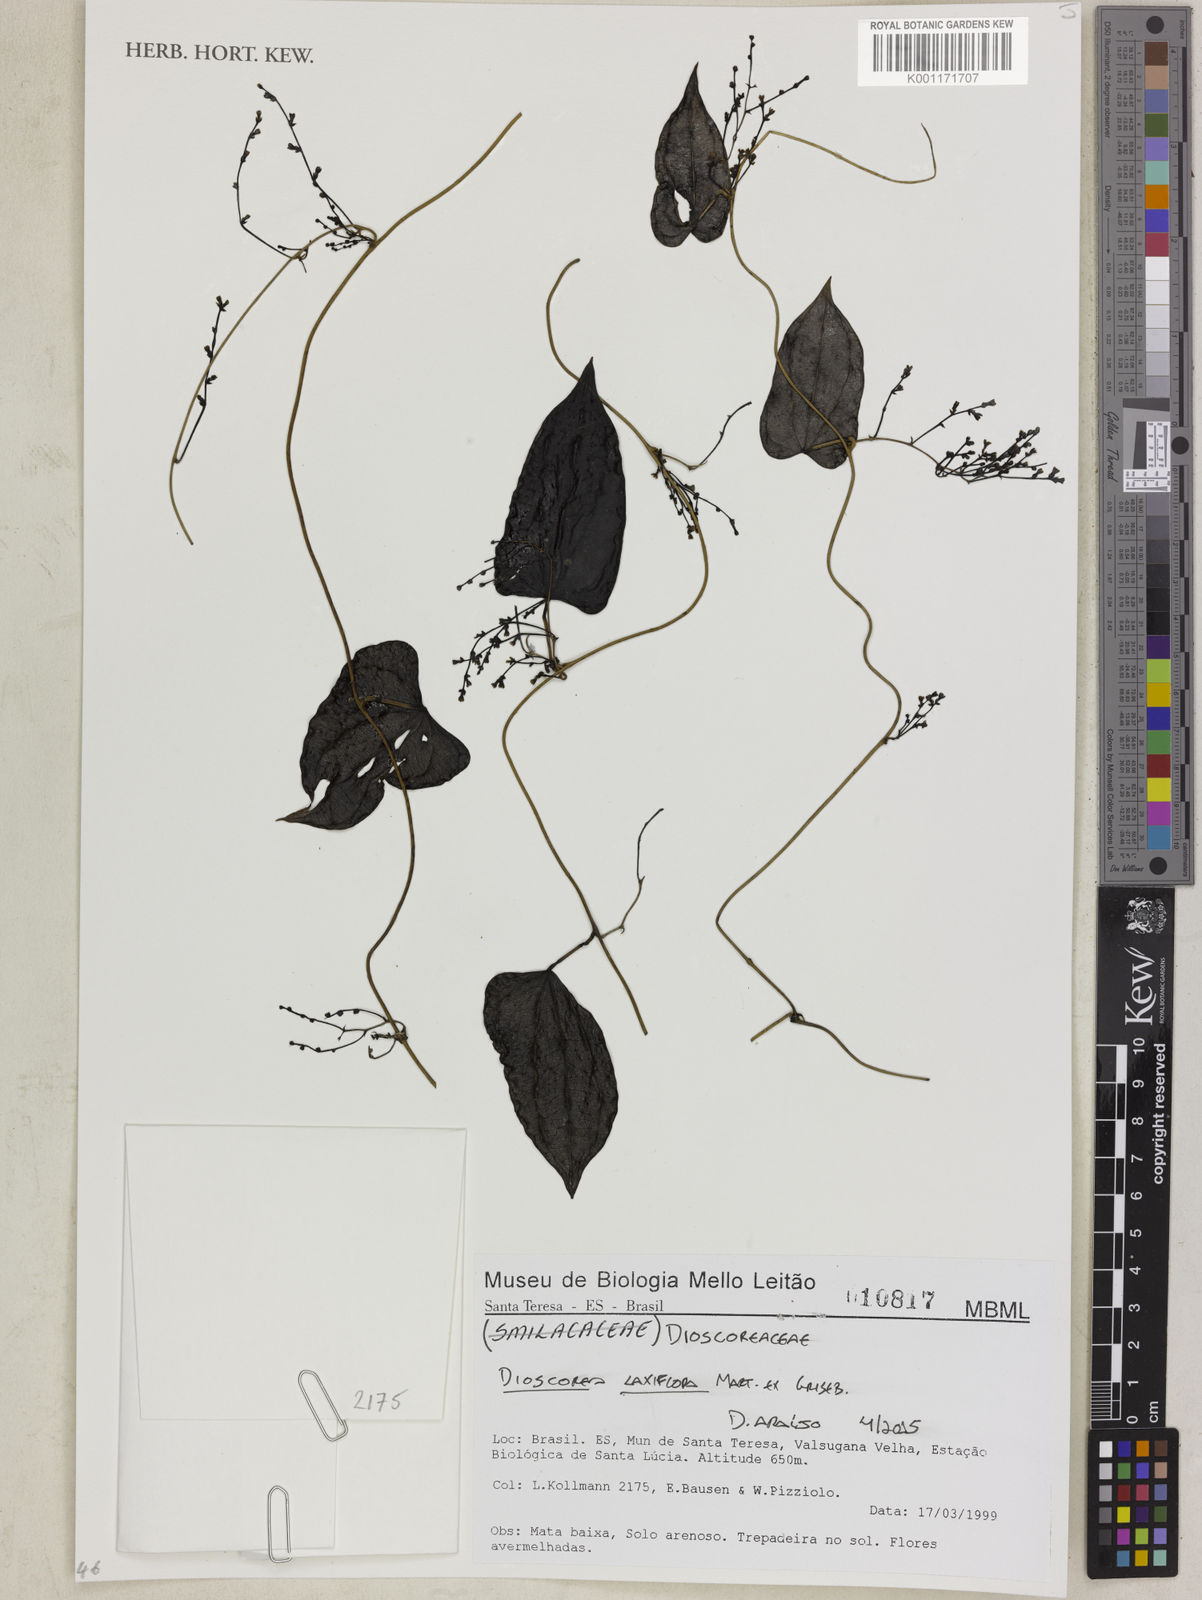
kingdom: Plantae
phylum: Tracheophyta
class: Liliopsida
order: Dioscoreales
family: Dioscoreaceae
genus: Dioscorea
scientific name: Dioscorea laxiflora
